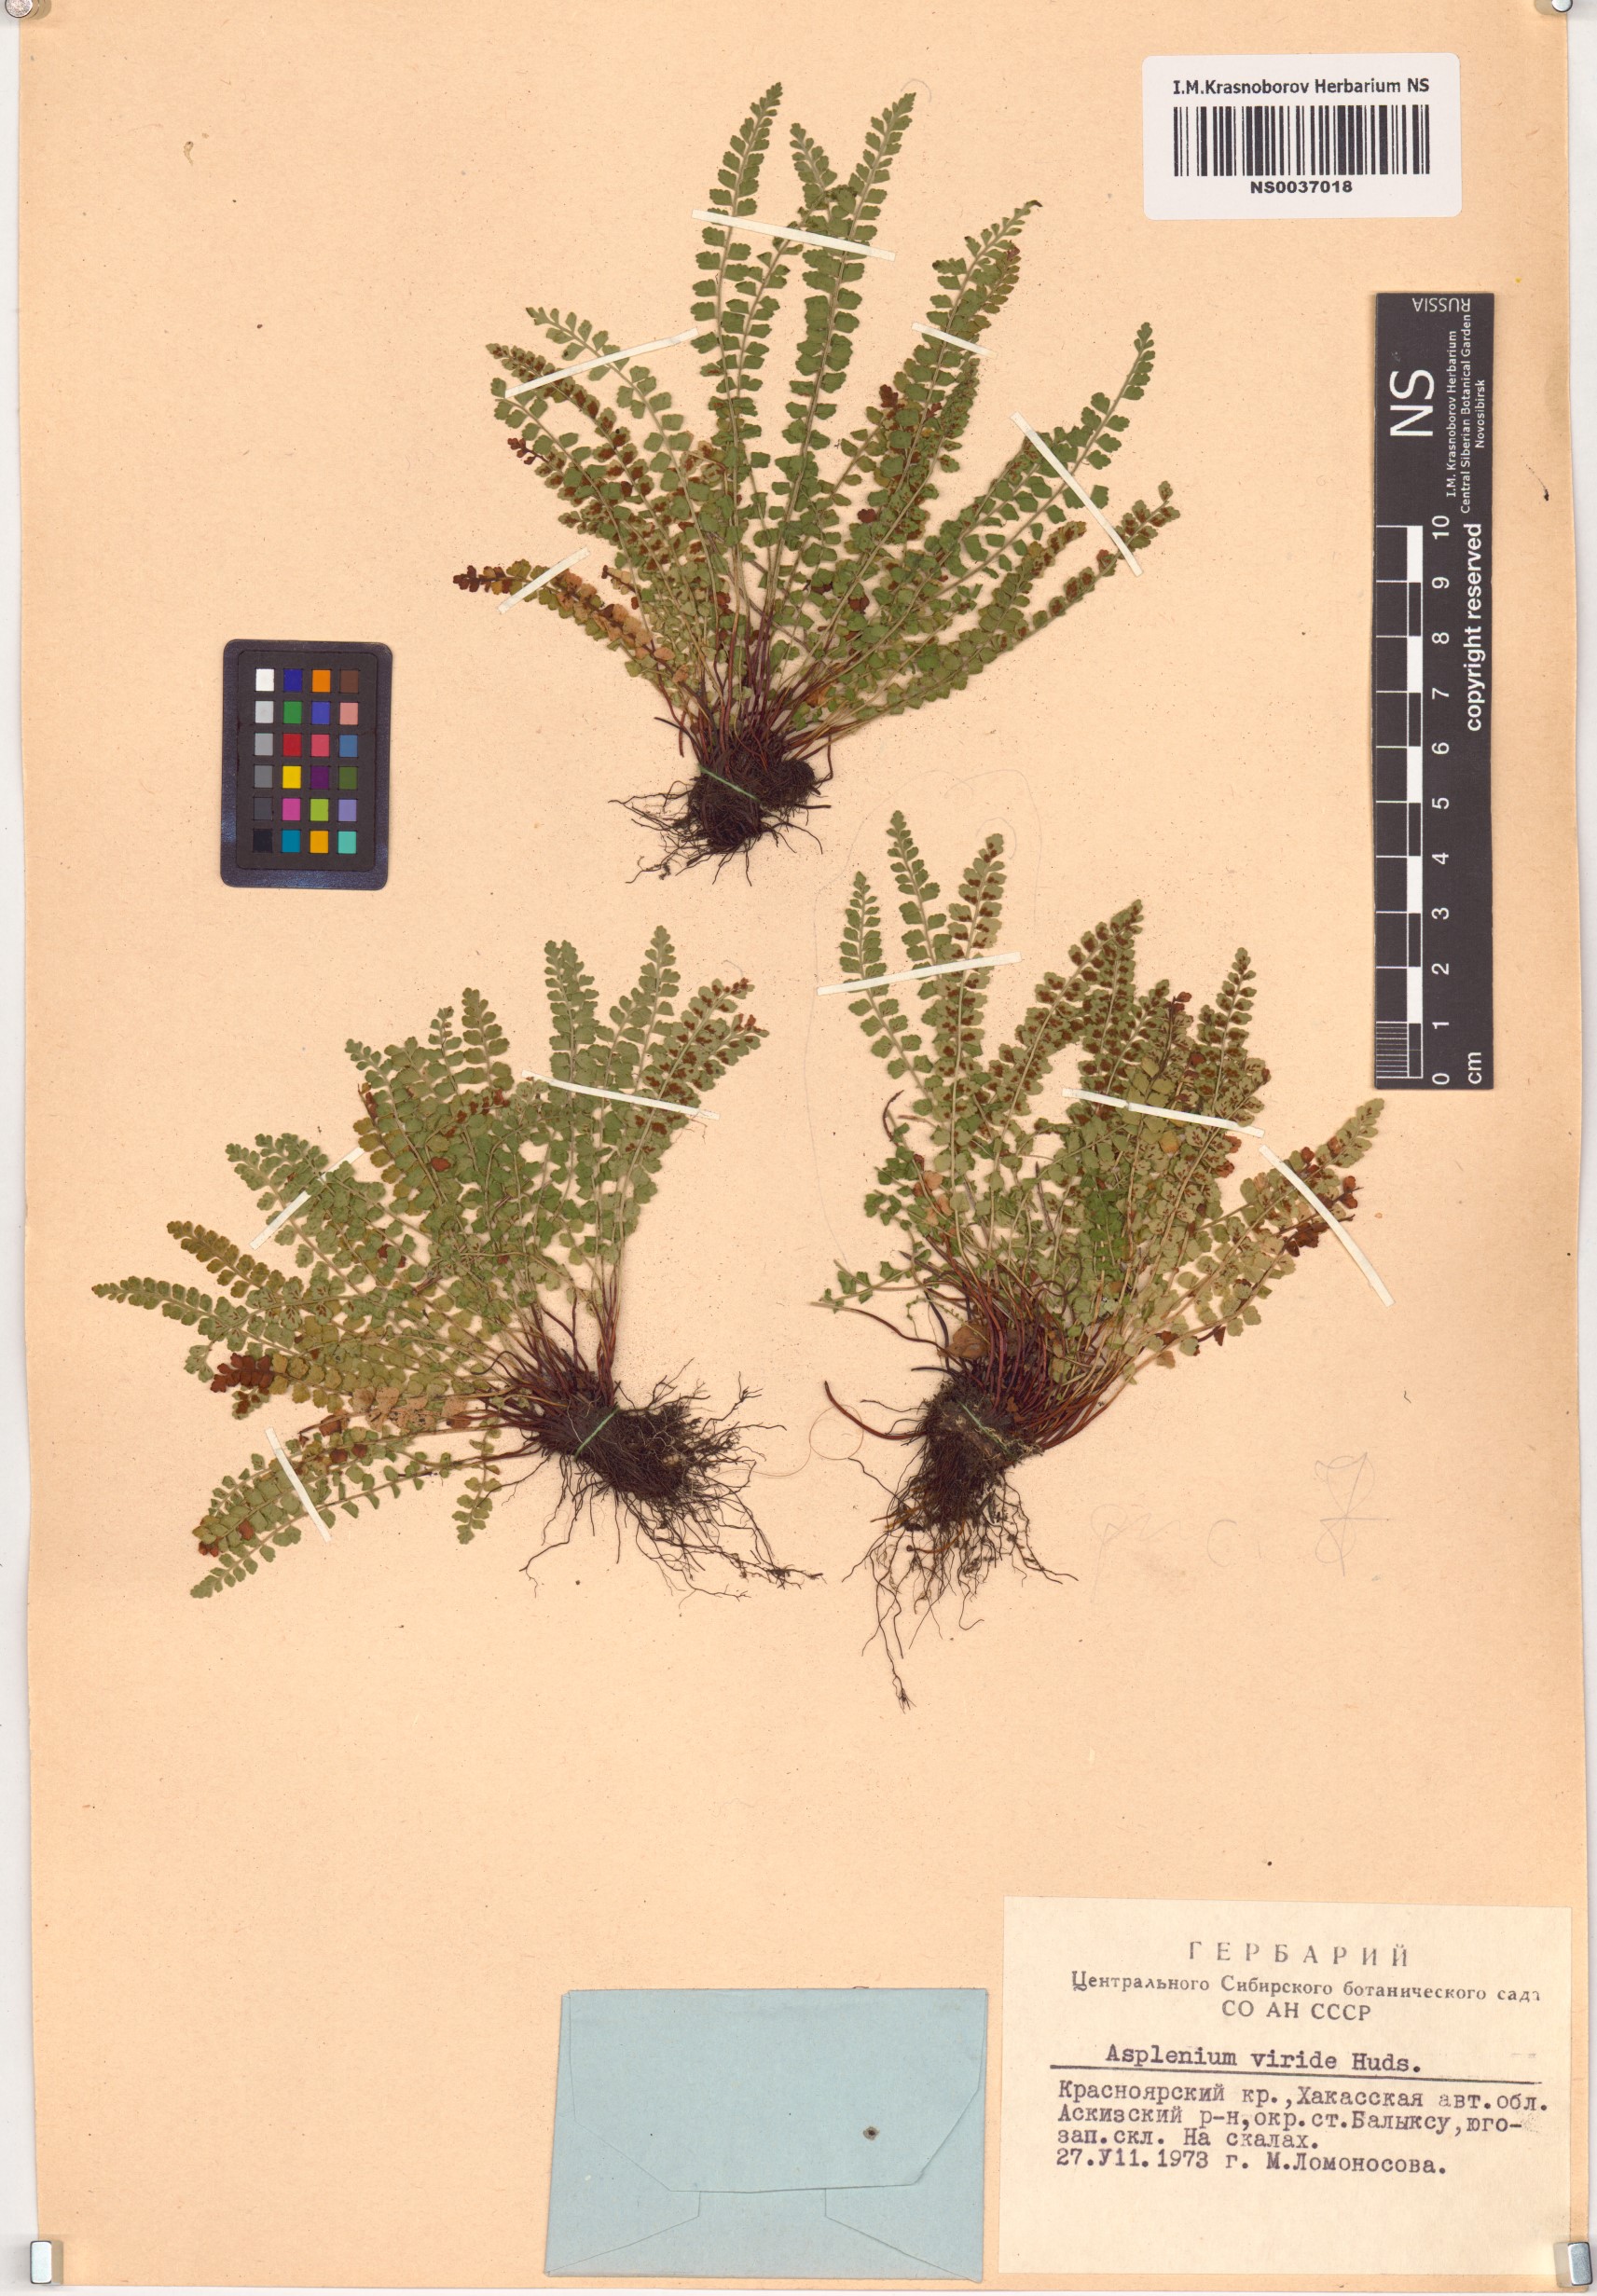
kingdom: Plantae
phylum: Tracheophyta
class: Polypodiopsida
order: Polypodiales
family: Aspleniaceae
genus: Asplenium
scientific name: Asplenium viride
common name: Green spleenwort
